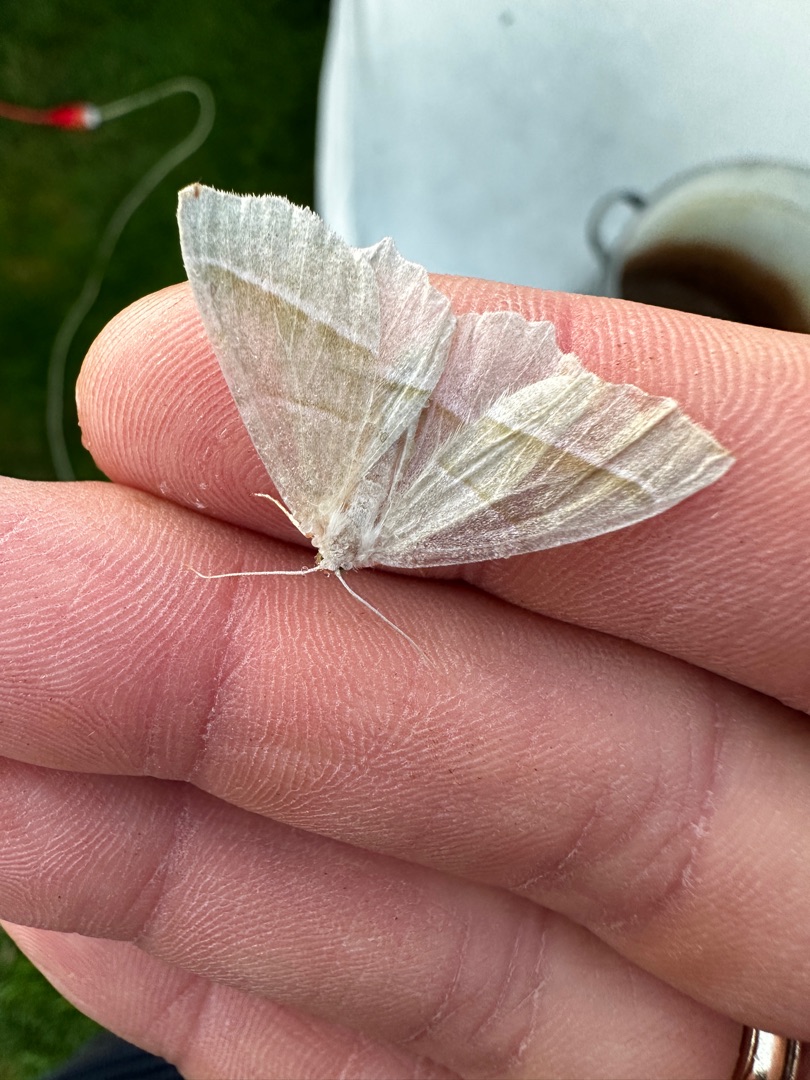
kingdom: Animalia
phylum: Arthropoda
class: Insecta
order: Lepidoptera
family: Geometridae
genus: Campaea
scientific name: Campaea margaritaria
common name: Perlemåler
